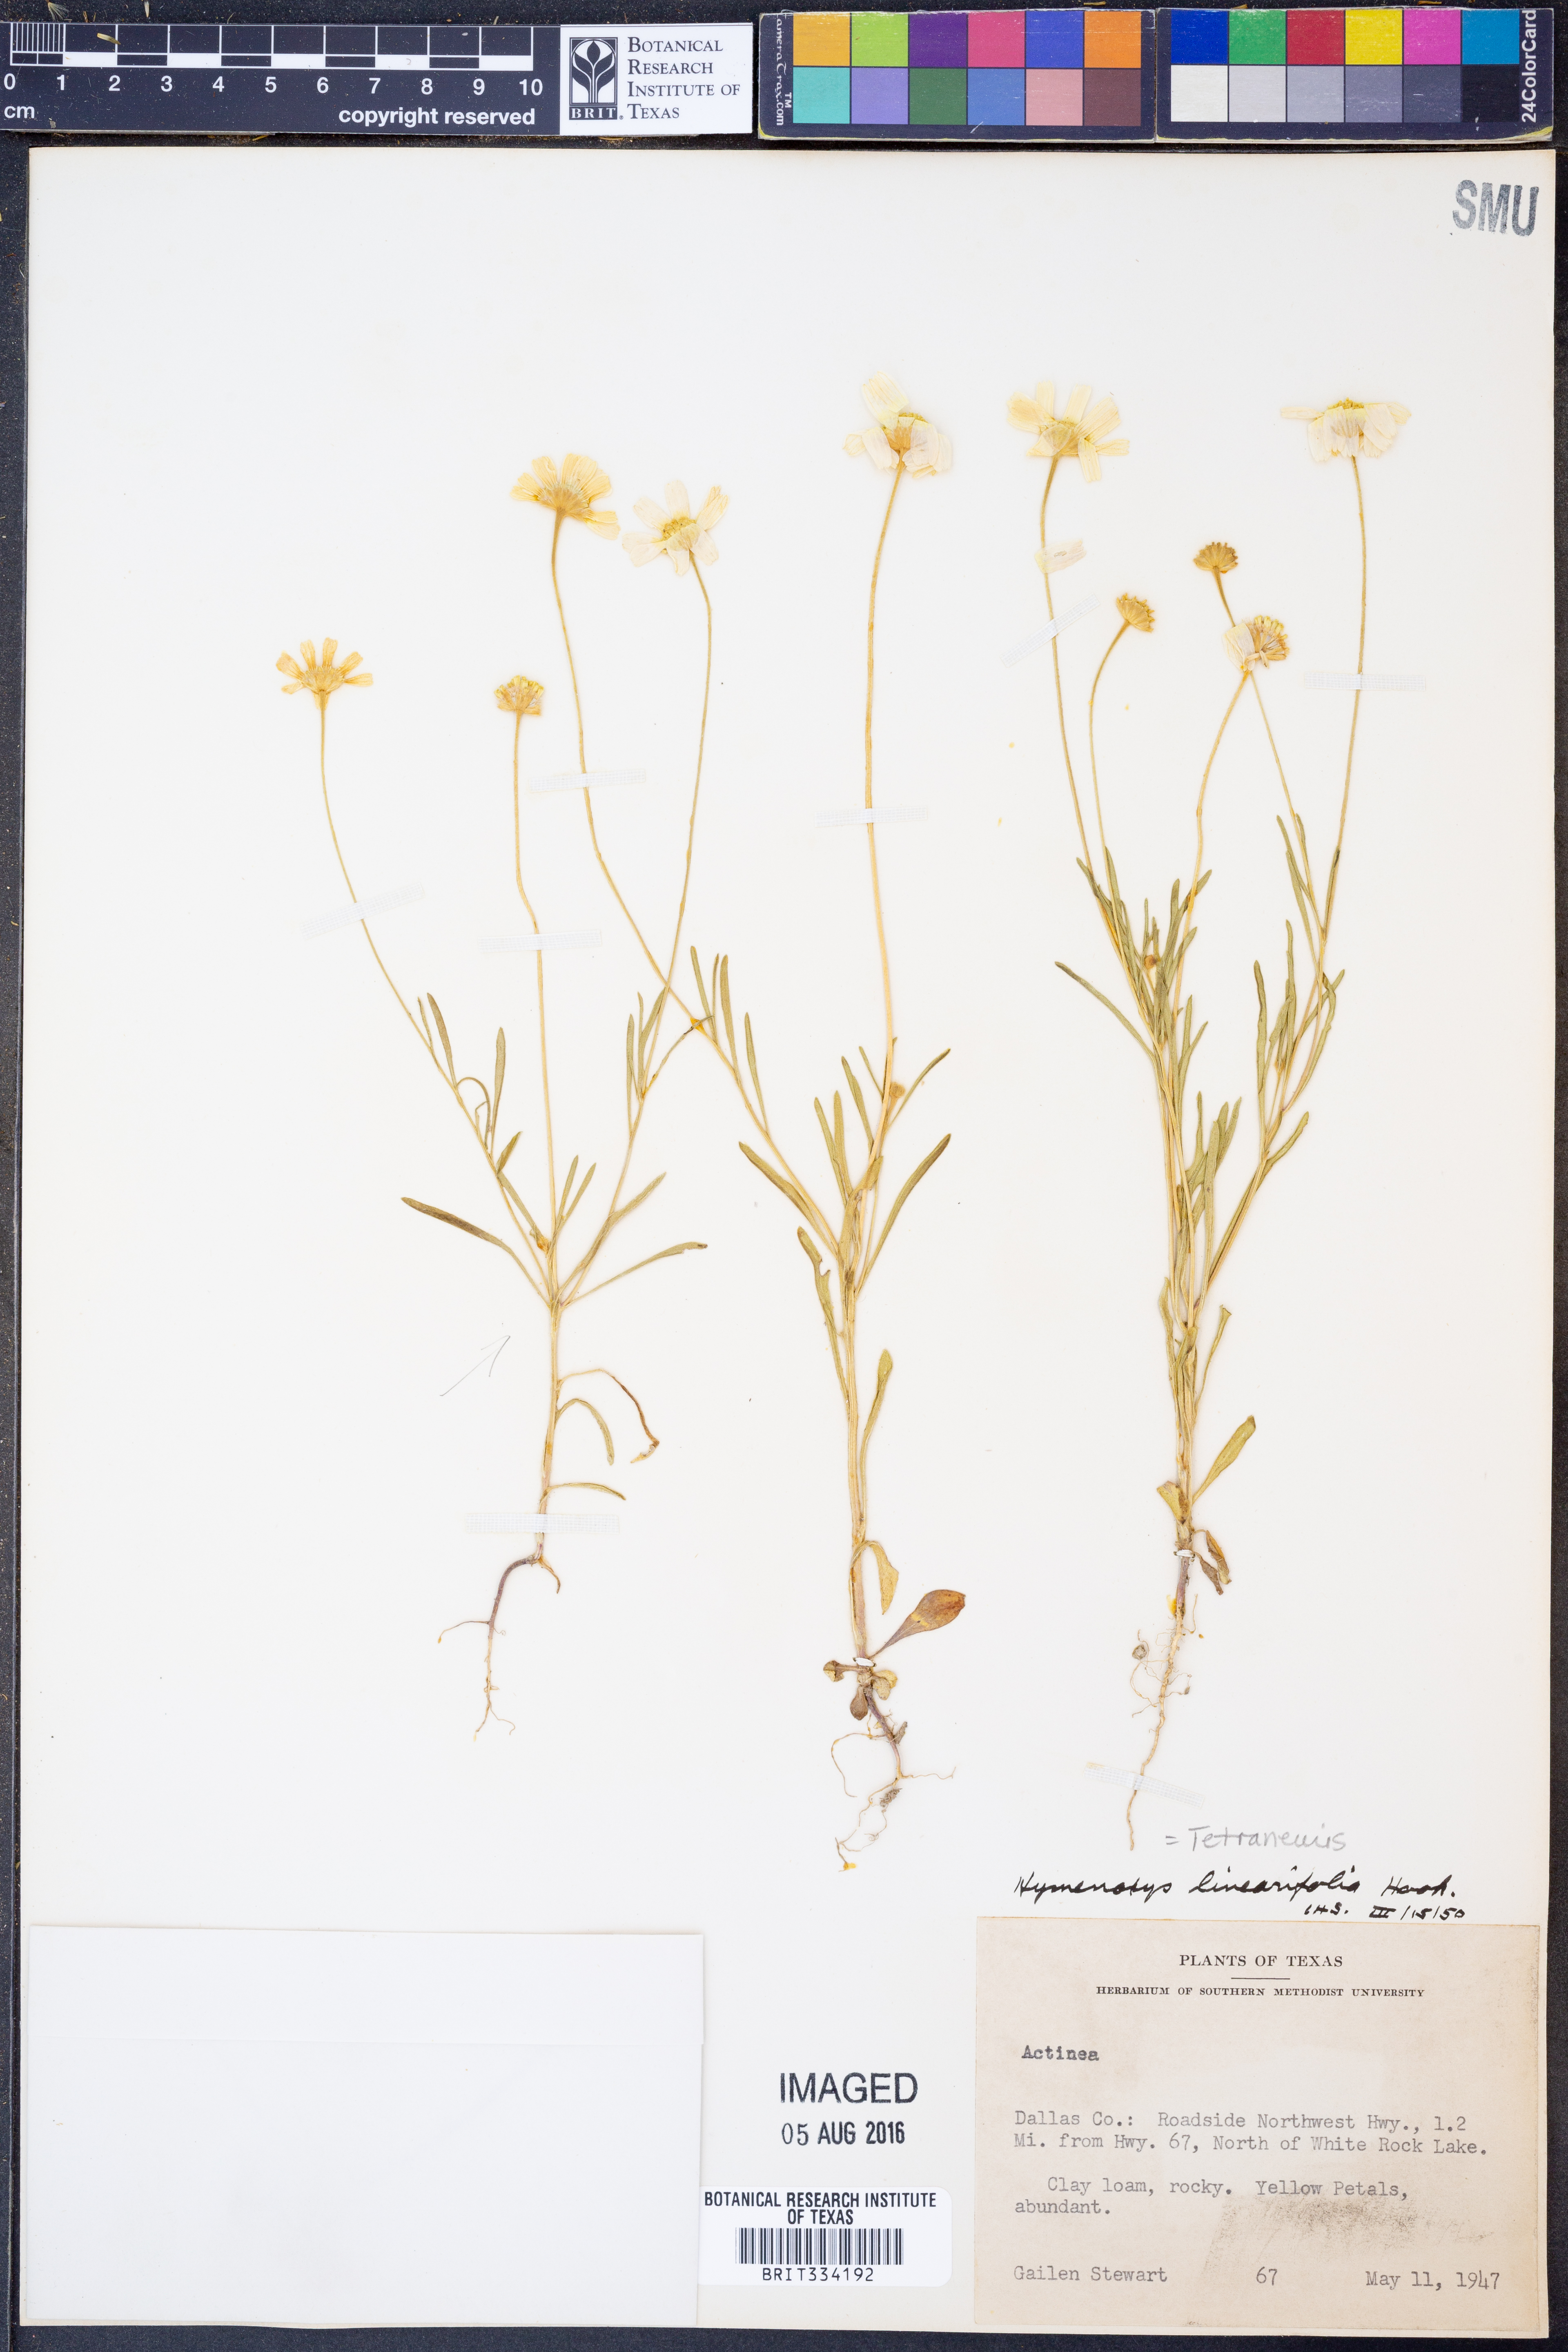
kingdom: Plantae
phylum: Tracheophyta
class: Magnoliopsida
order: Asterales
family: Asteraceae
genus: Tetraneuris
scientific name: Tetraneuris linearifolia
